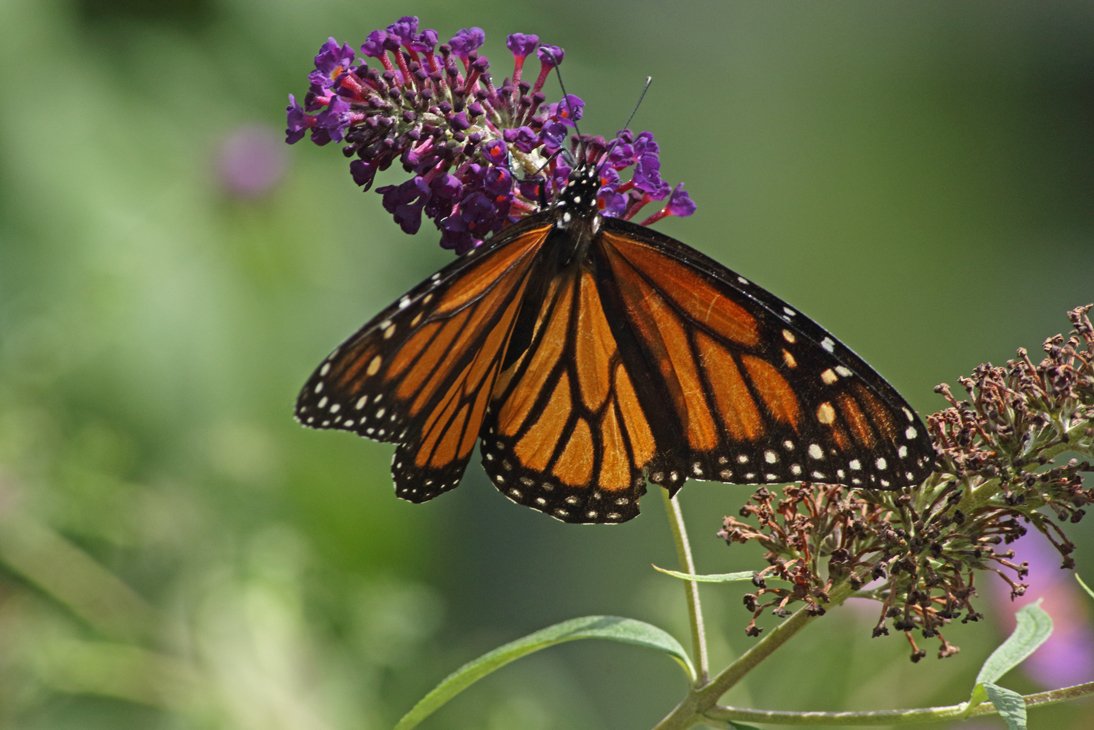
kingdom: Animalia
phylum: Arthropoda
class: Insecta
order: Lepidoptera
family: Nymphalidae
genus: Danaus
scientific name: Danaus plexippus
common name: Monarch
